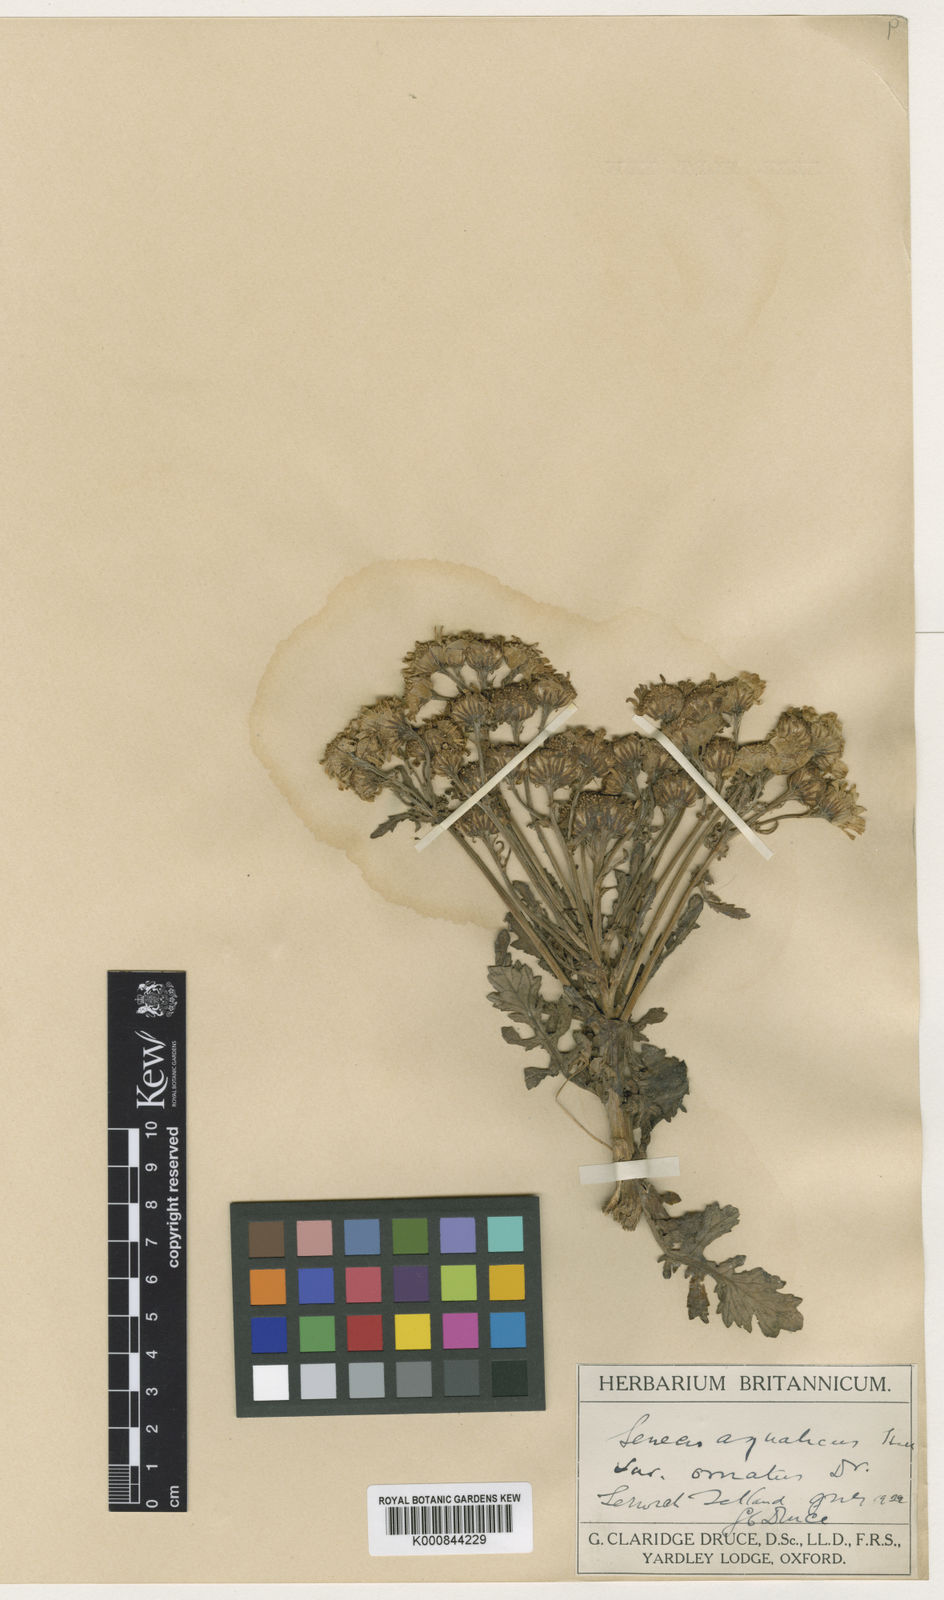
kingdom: Plantae
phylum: Tracheophyta
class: Magnoliopsida
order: Asterales
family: Asteraceae
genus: Jacobaea
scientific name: Jacobaea aquatica
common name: Water ragwort
